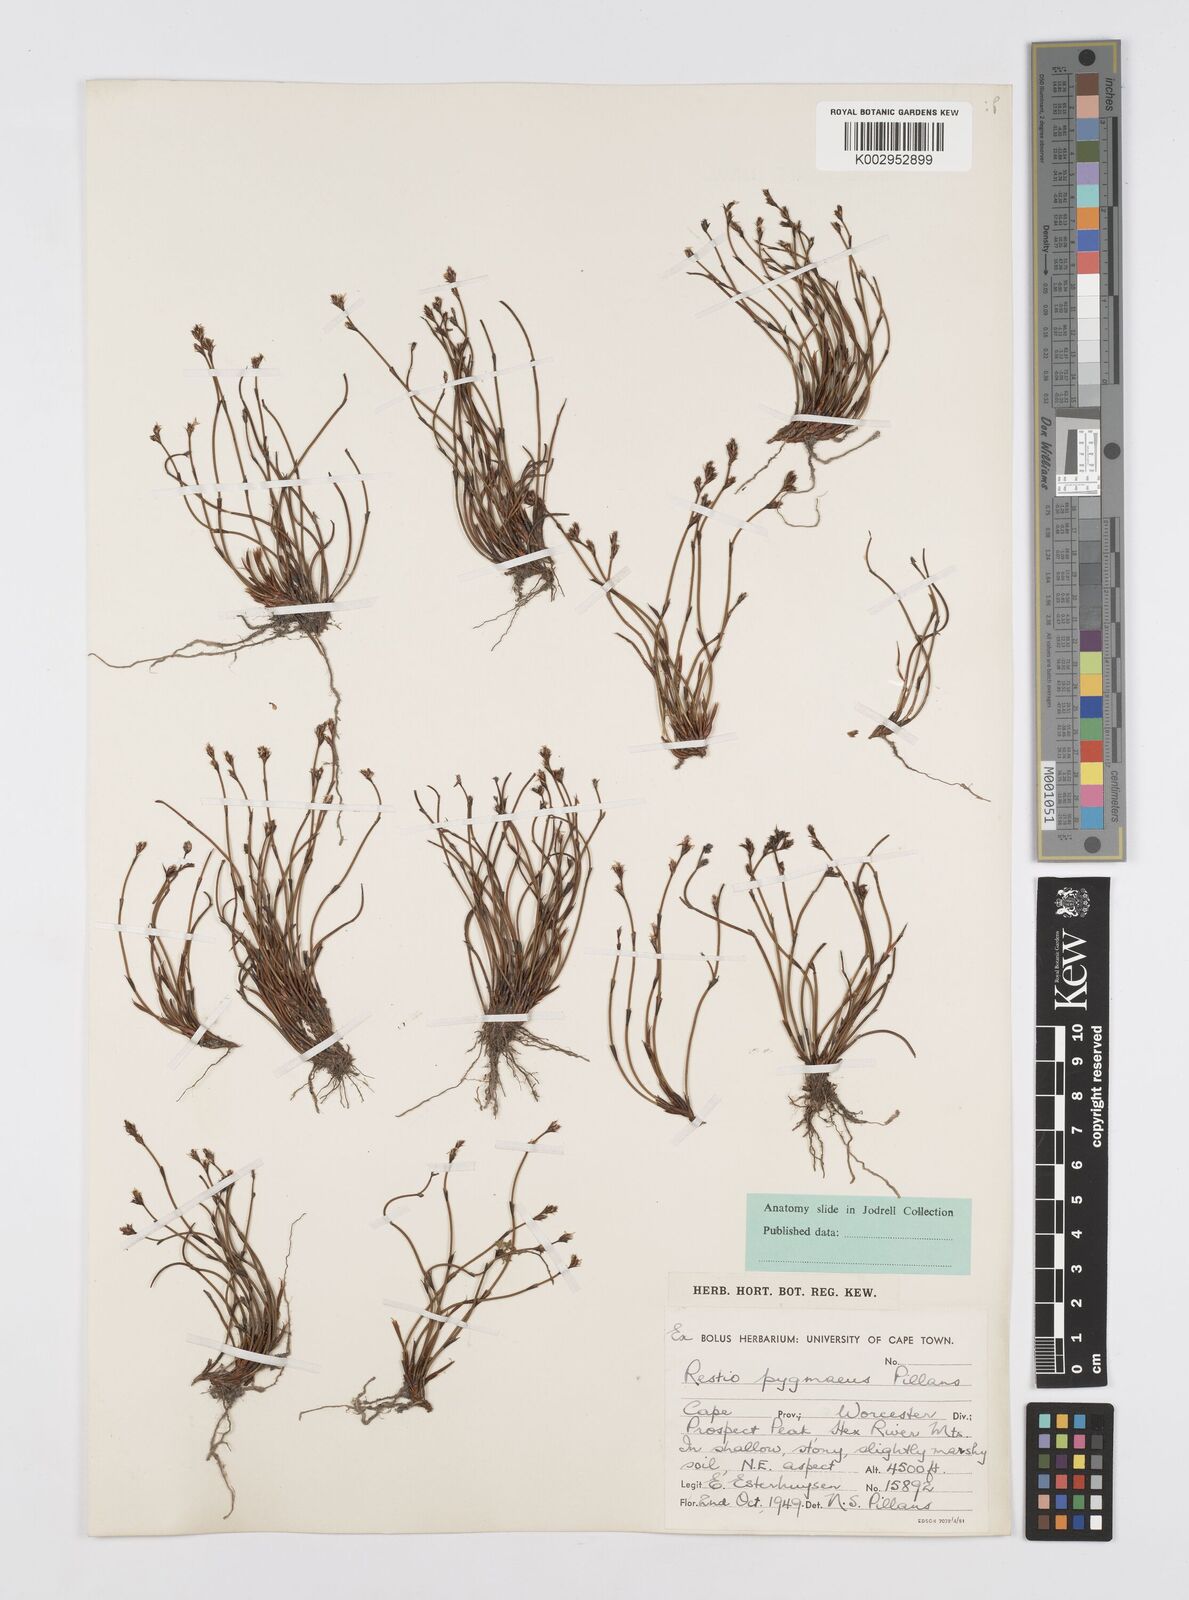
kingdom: Plantae
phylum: Tracheophyta
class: Liliopsida
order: Poales
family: Restionaceae
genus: Restio
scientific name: Restio pygmaeus
